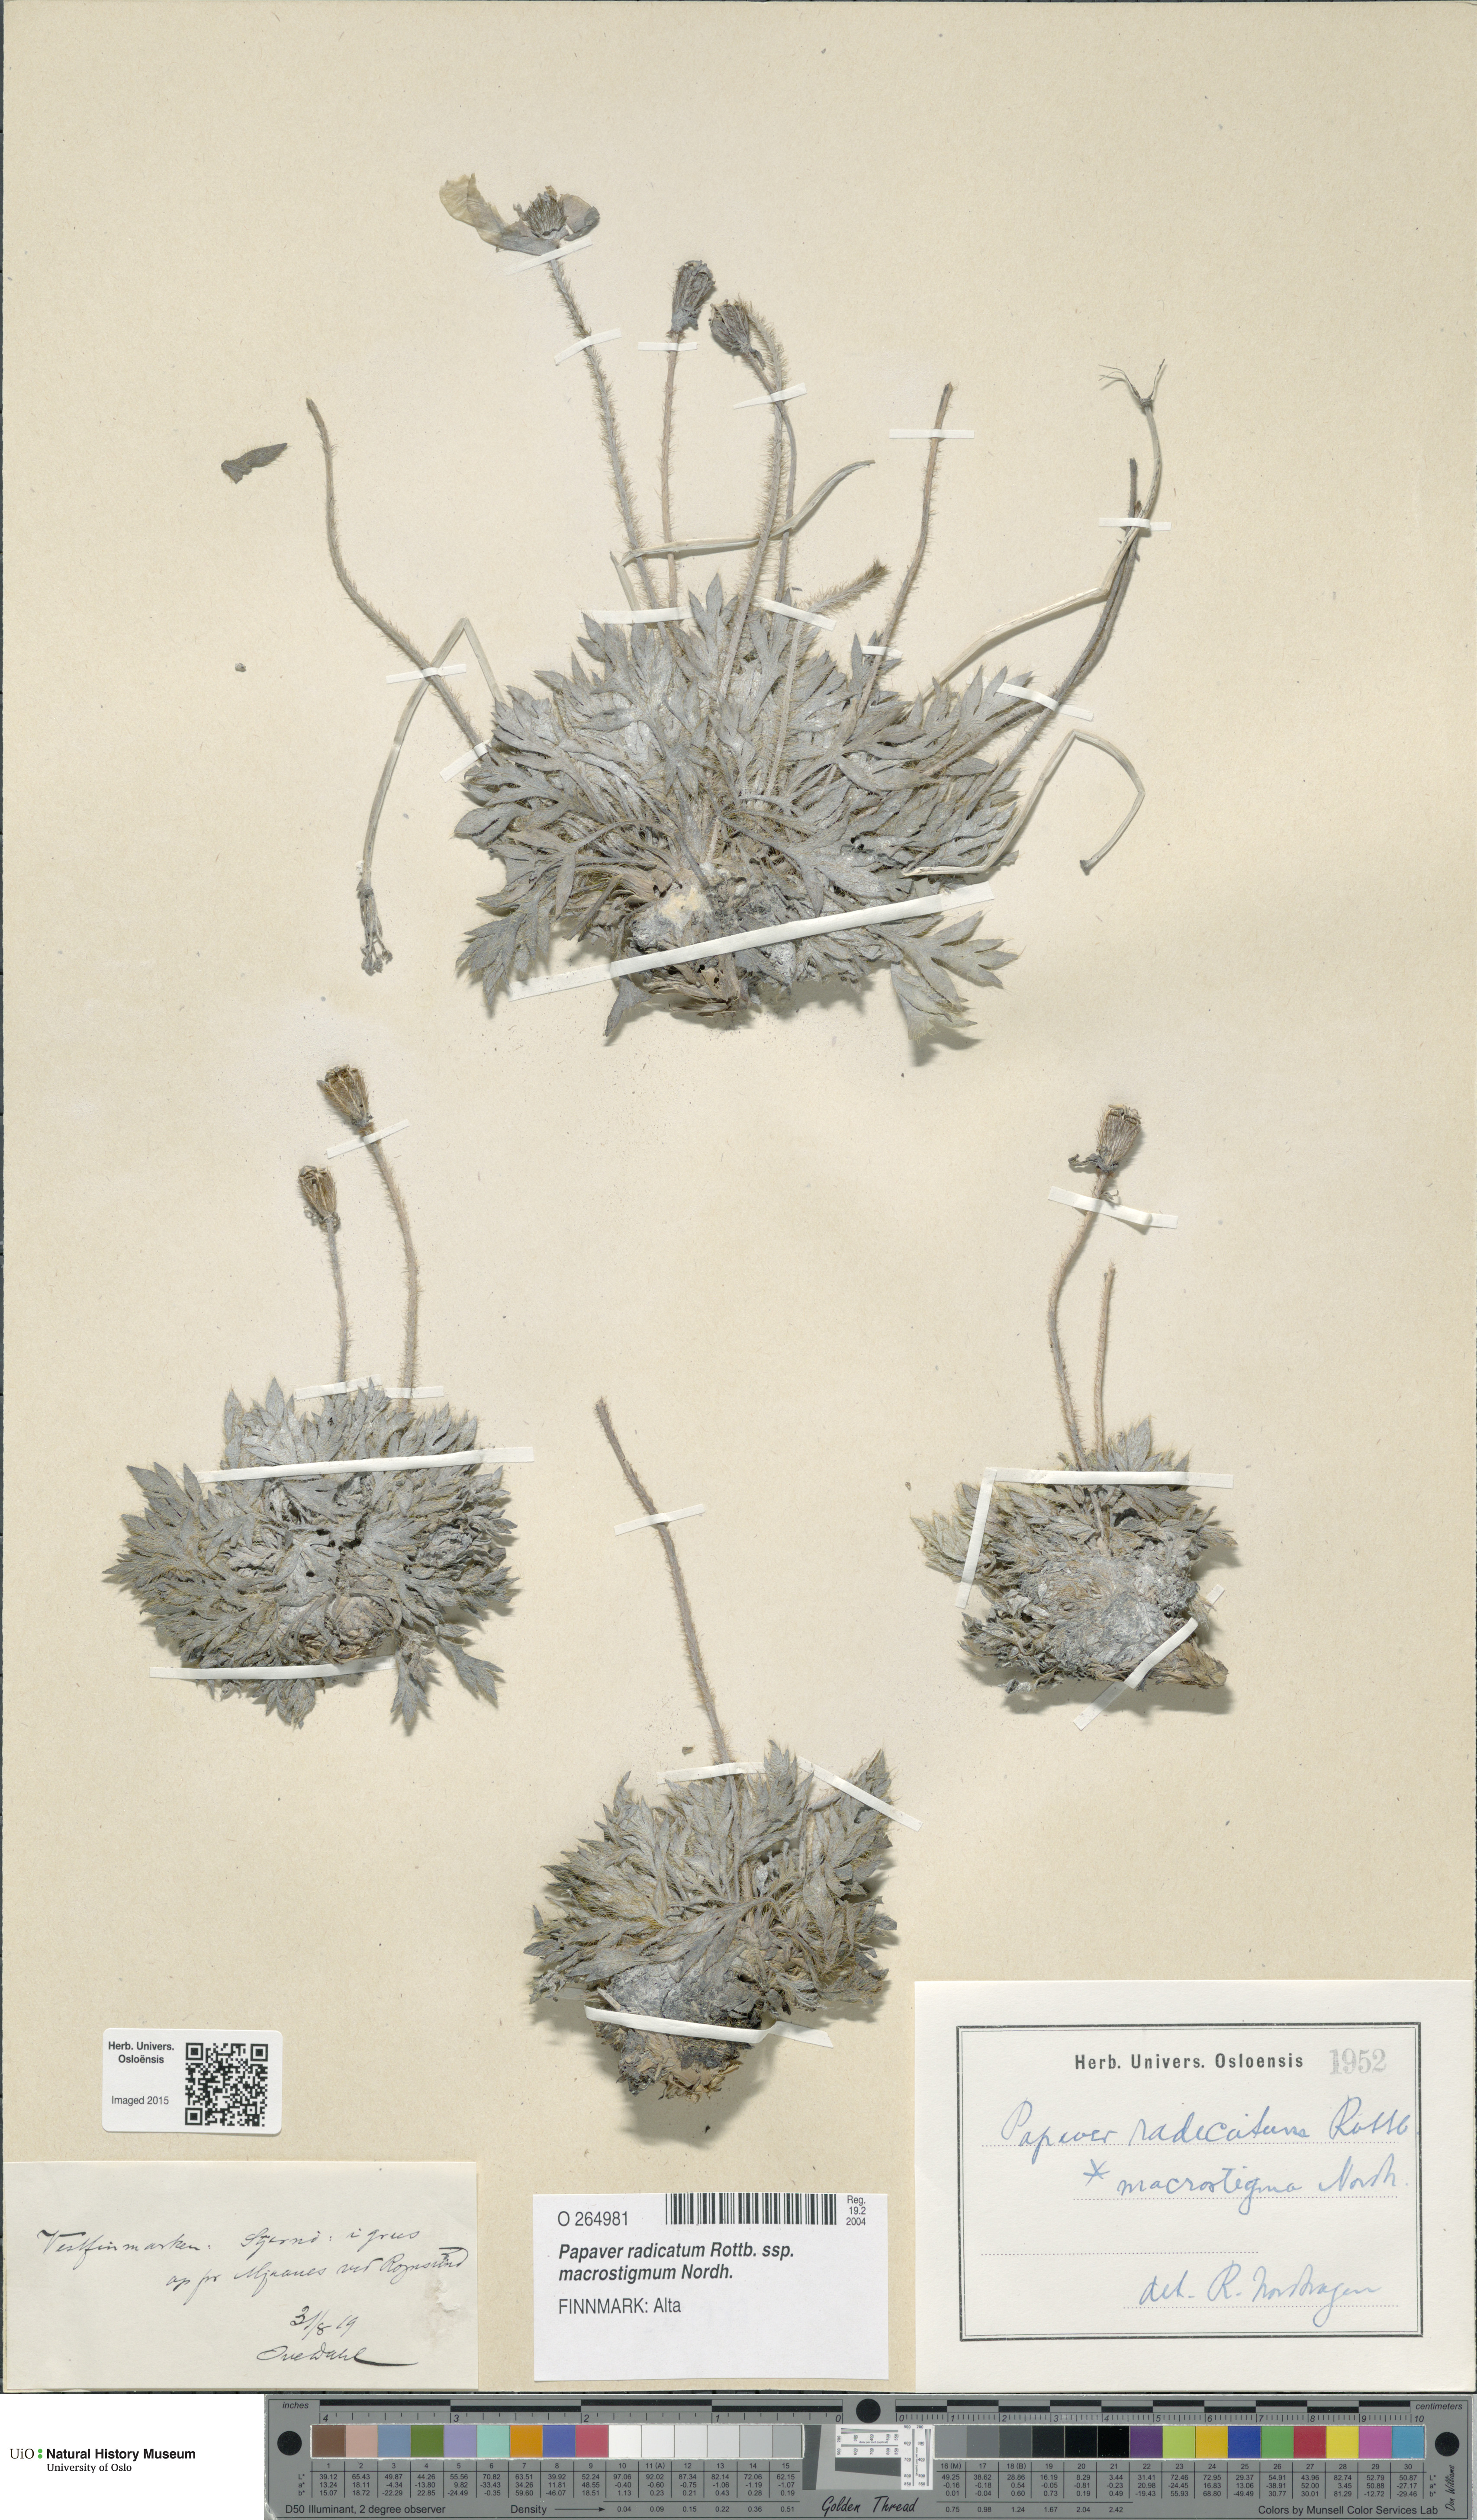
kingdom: Plantae
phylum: Tracheophyta
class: Magnoliopsida
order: Ranunculales
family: Papaveraceae
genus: Papaver
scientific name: Papaver radicatum
